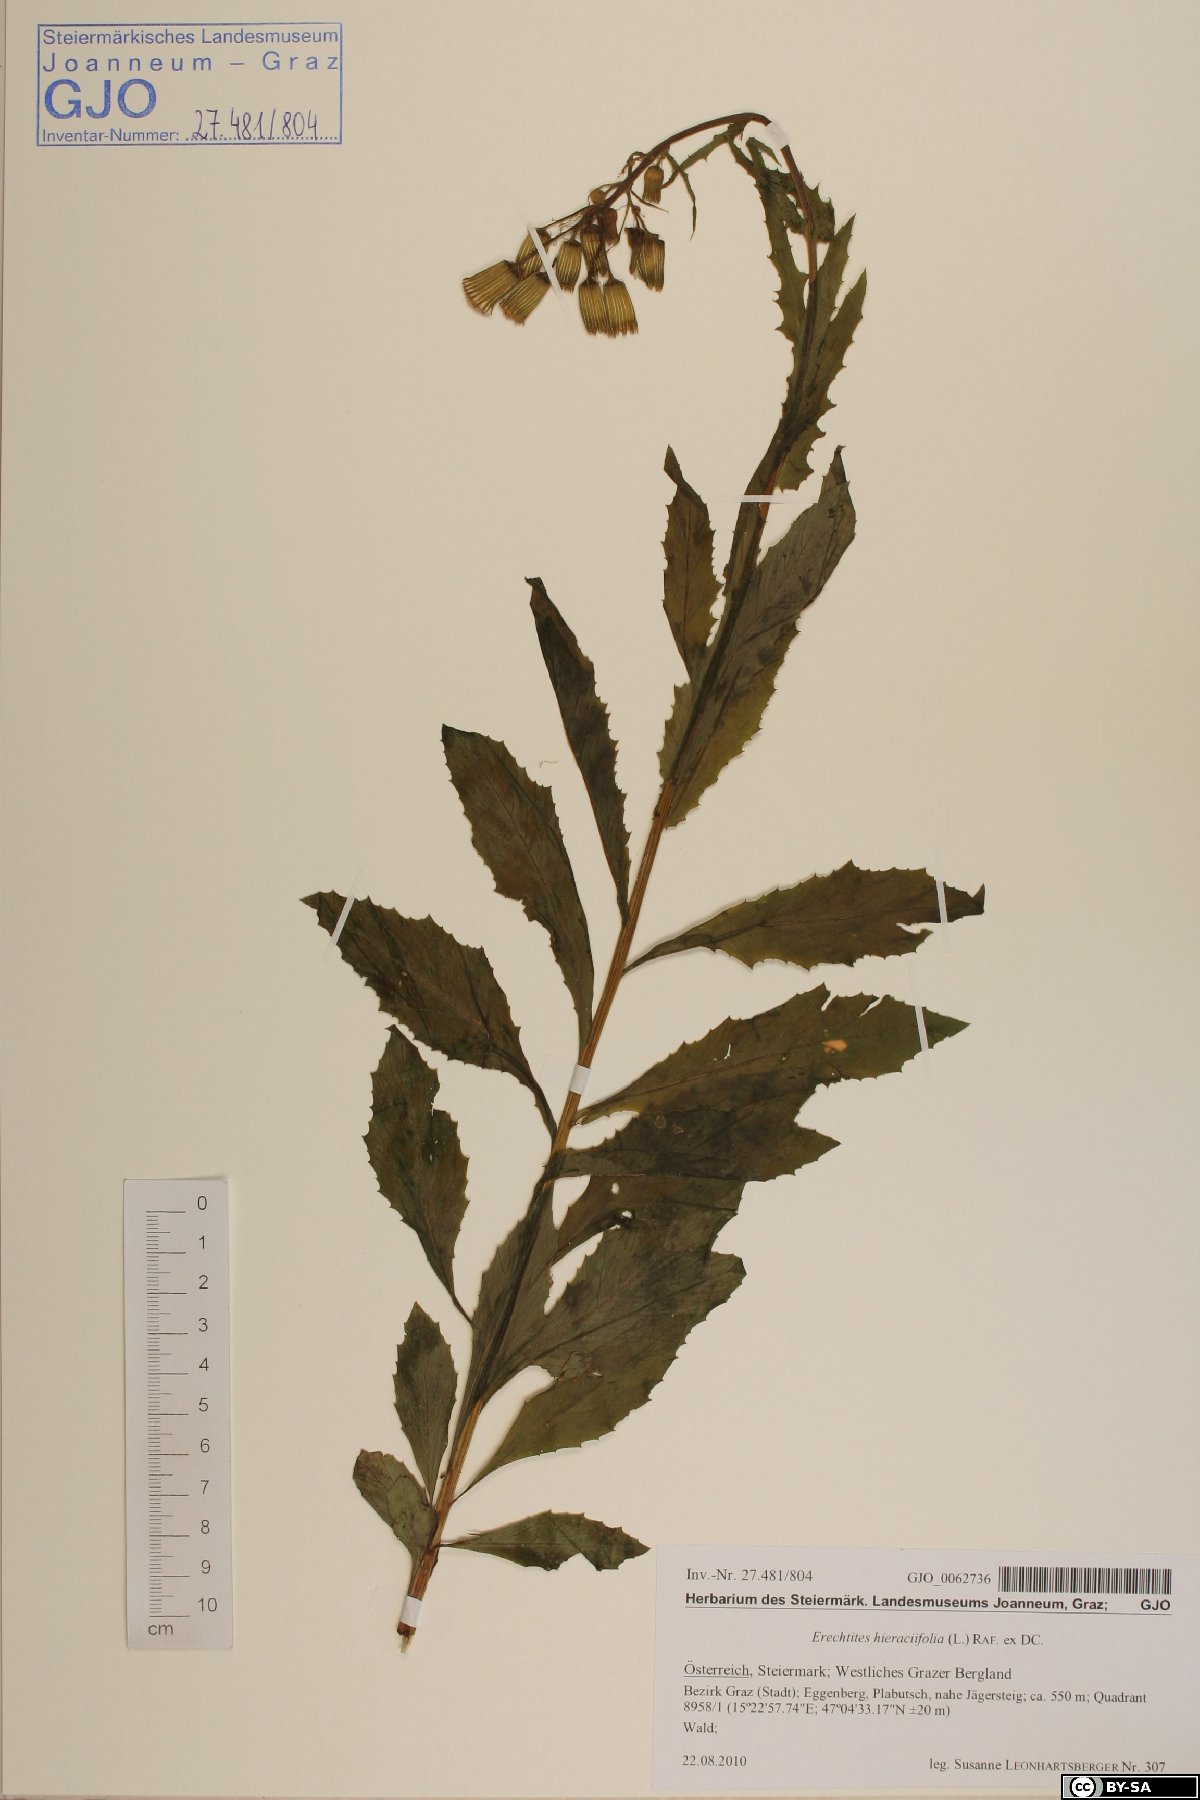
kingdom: Plantae
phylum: Tracheophyta
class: Magnoliopsida
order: Asterales
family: Asteraceae
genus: Erechtites
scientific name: Erechtites hieraciifolius
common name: American burnweed
